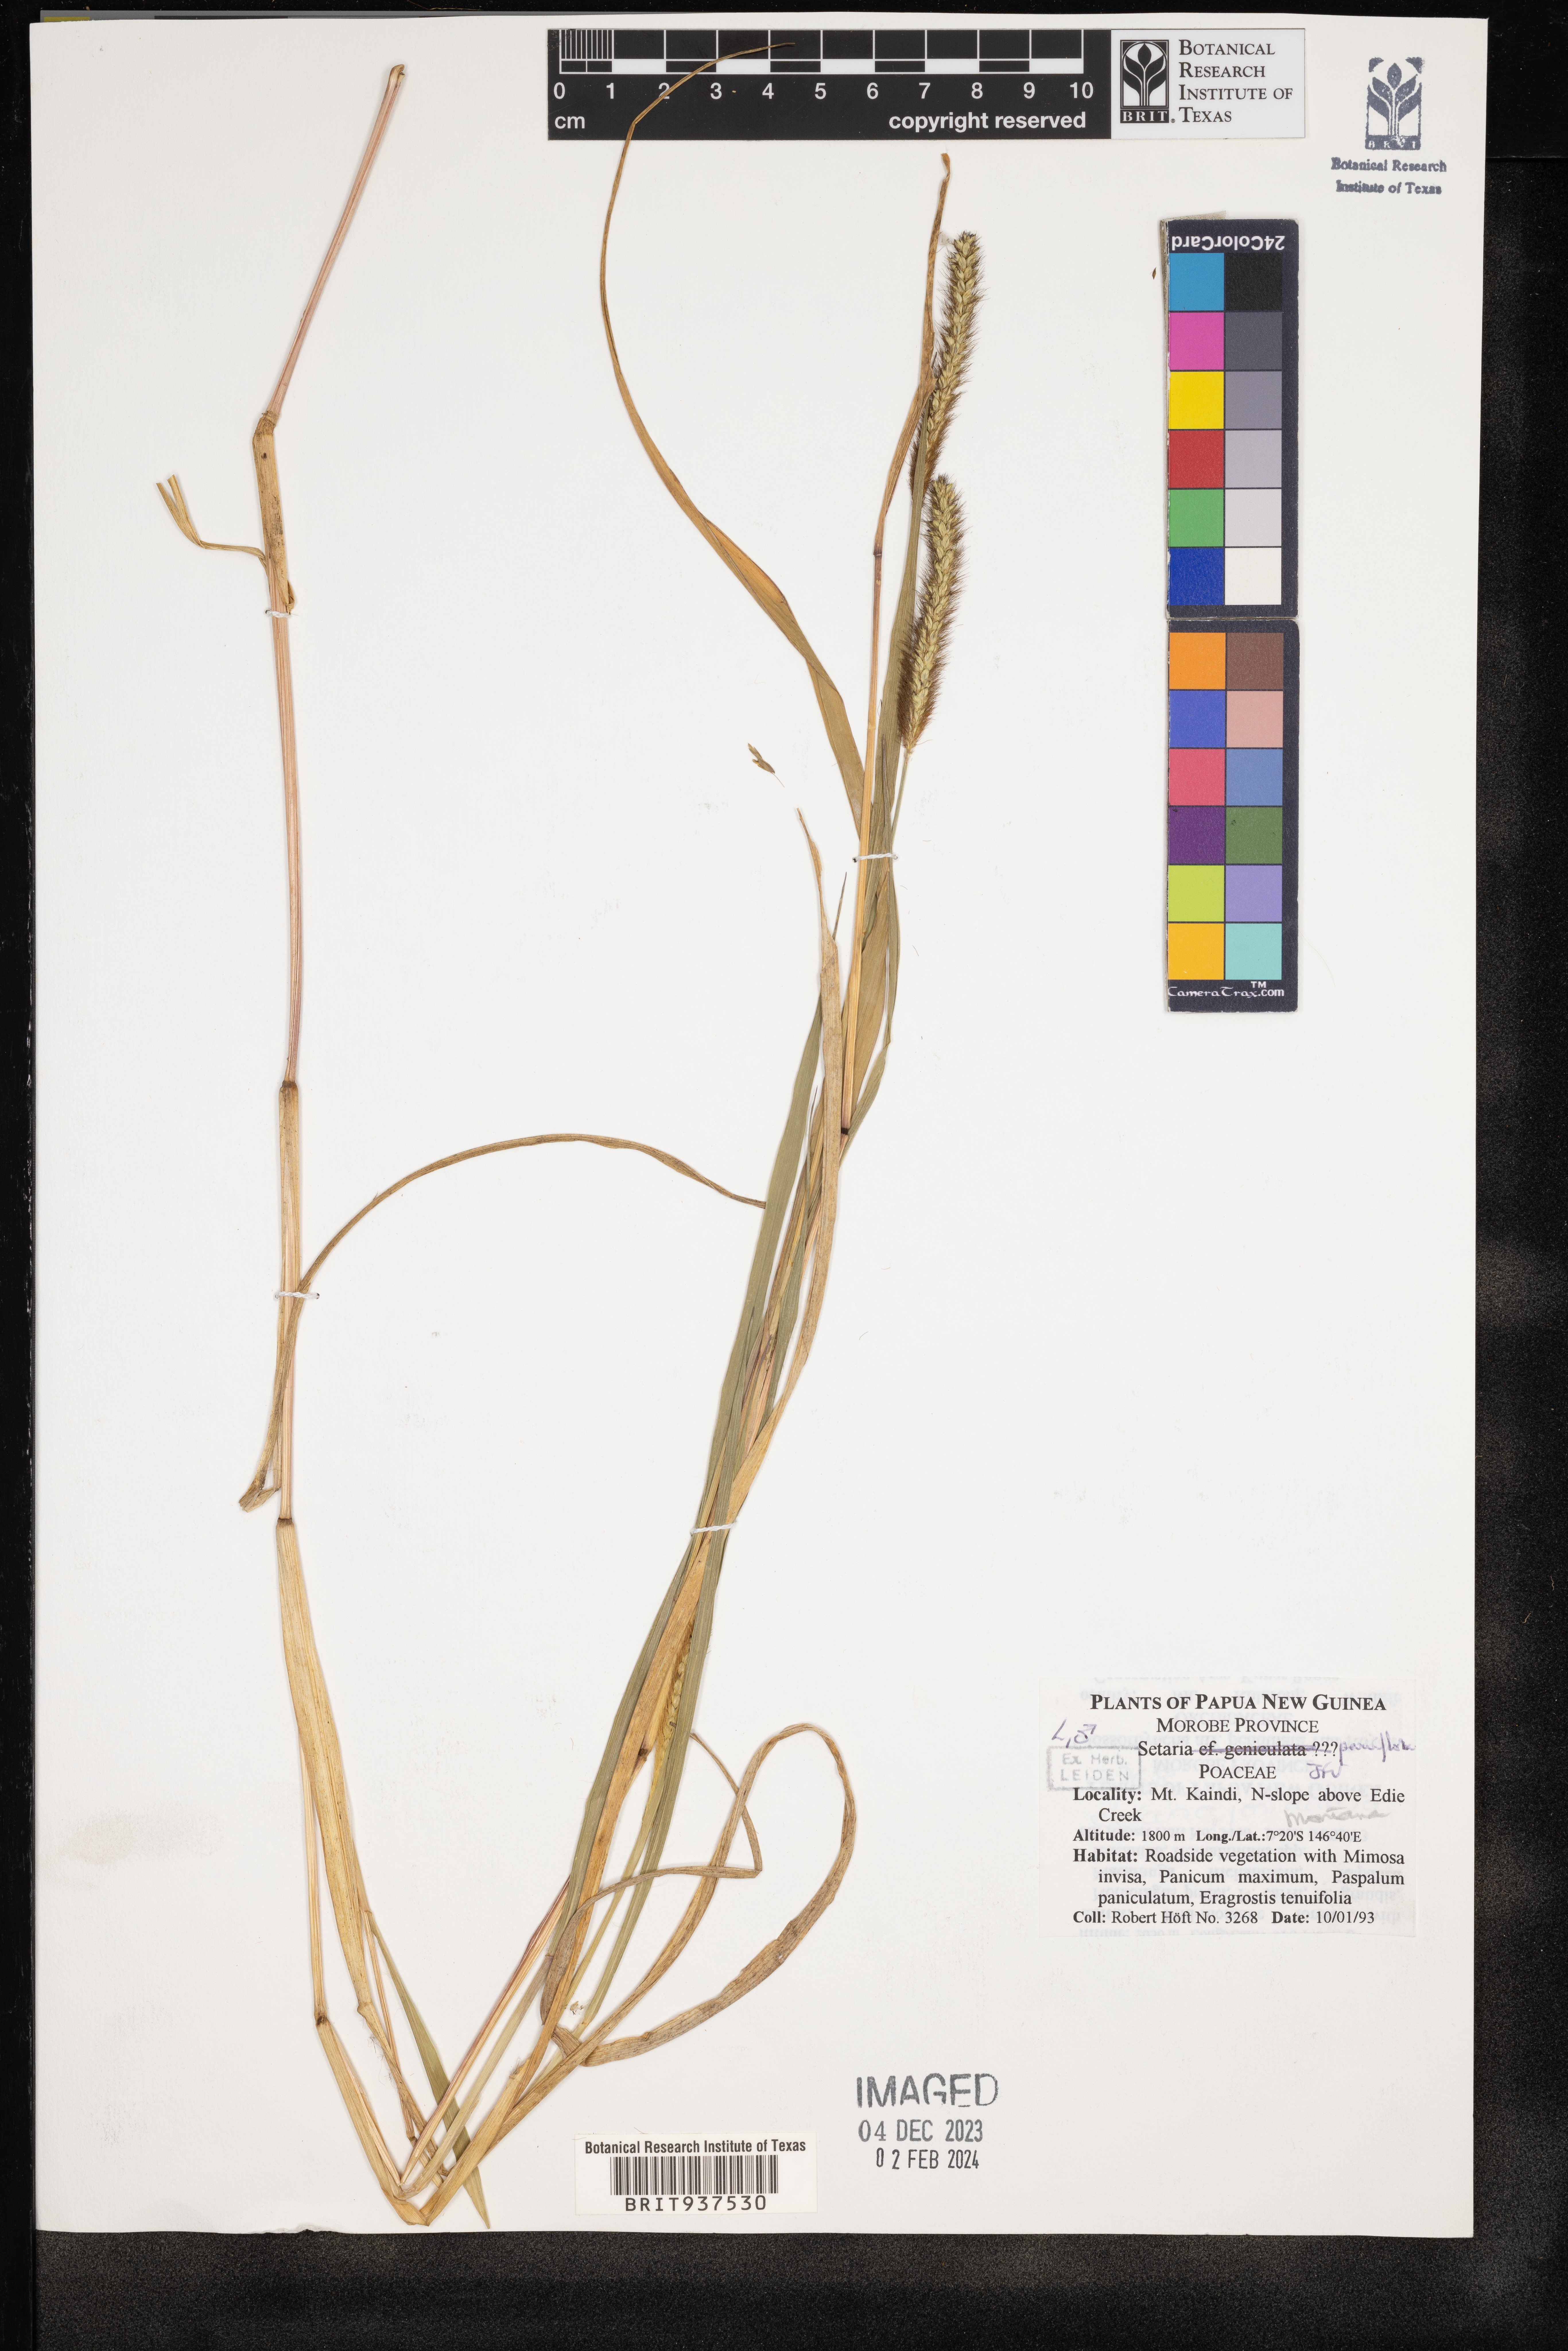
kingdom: Plantae
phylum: Tracheophyta
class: Liliopsida
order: Poales
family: Poaceae
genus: Setaria
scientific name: Setaria
